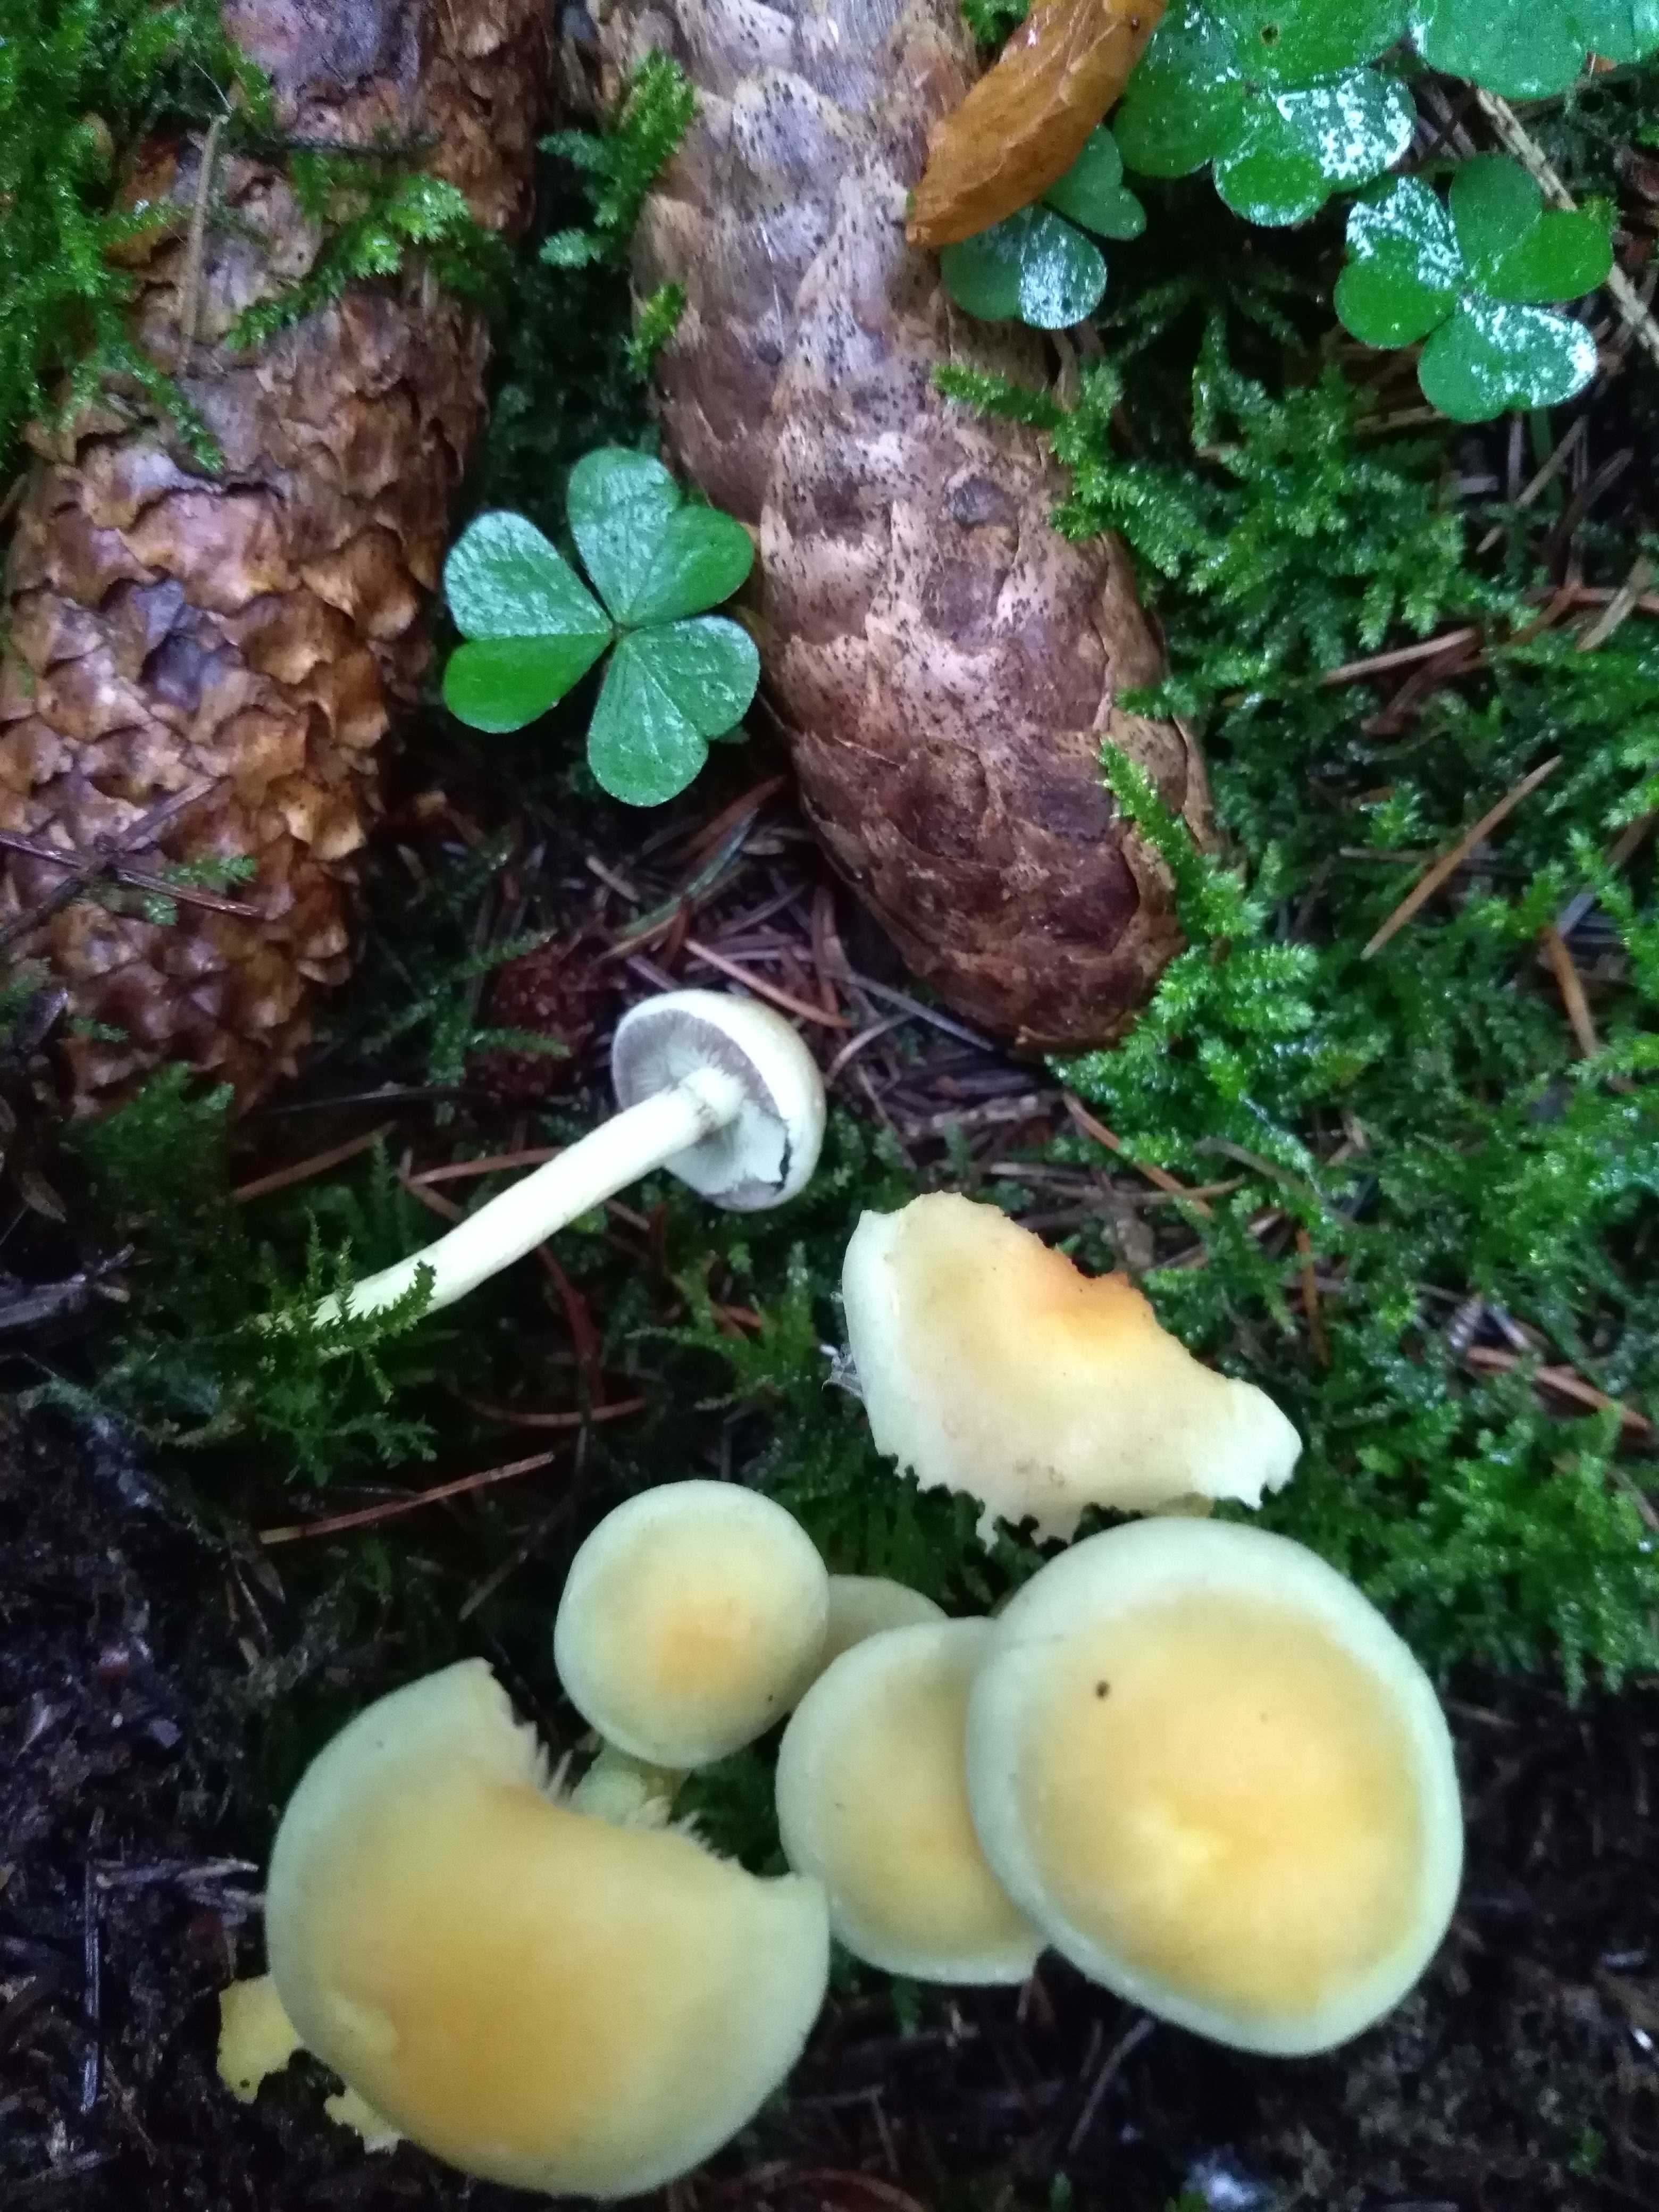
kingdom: Fungi
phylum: Basidiomycota
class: Agaricomycetes
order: Agaricales
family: Strophariaceae
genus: Hypholoma
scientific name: Hypholoma fasciculare
